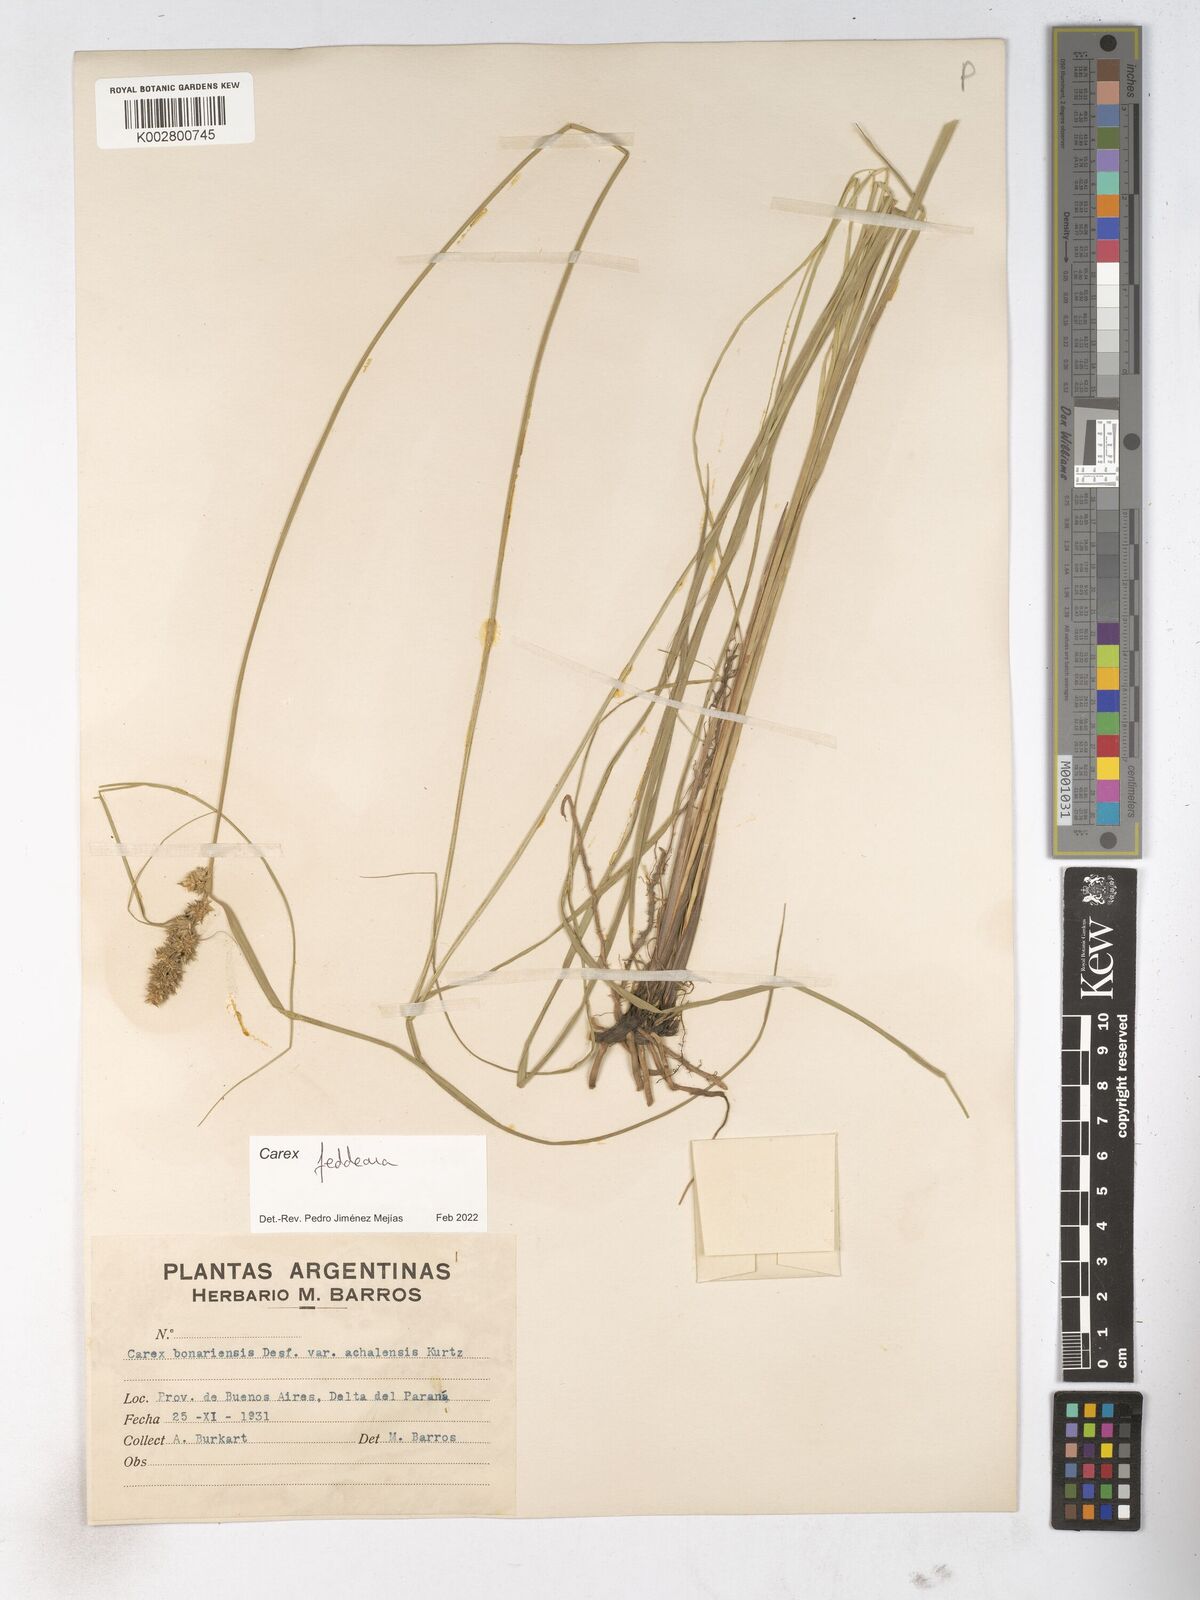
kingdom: Plantae
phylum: Tracheophyta
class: Liliopsida
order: Poales
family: Cyperaceae
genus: Carex
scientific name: Carex bonariensis
